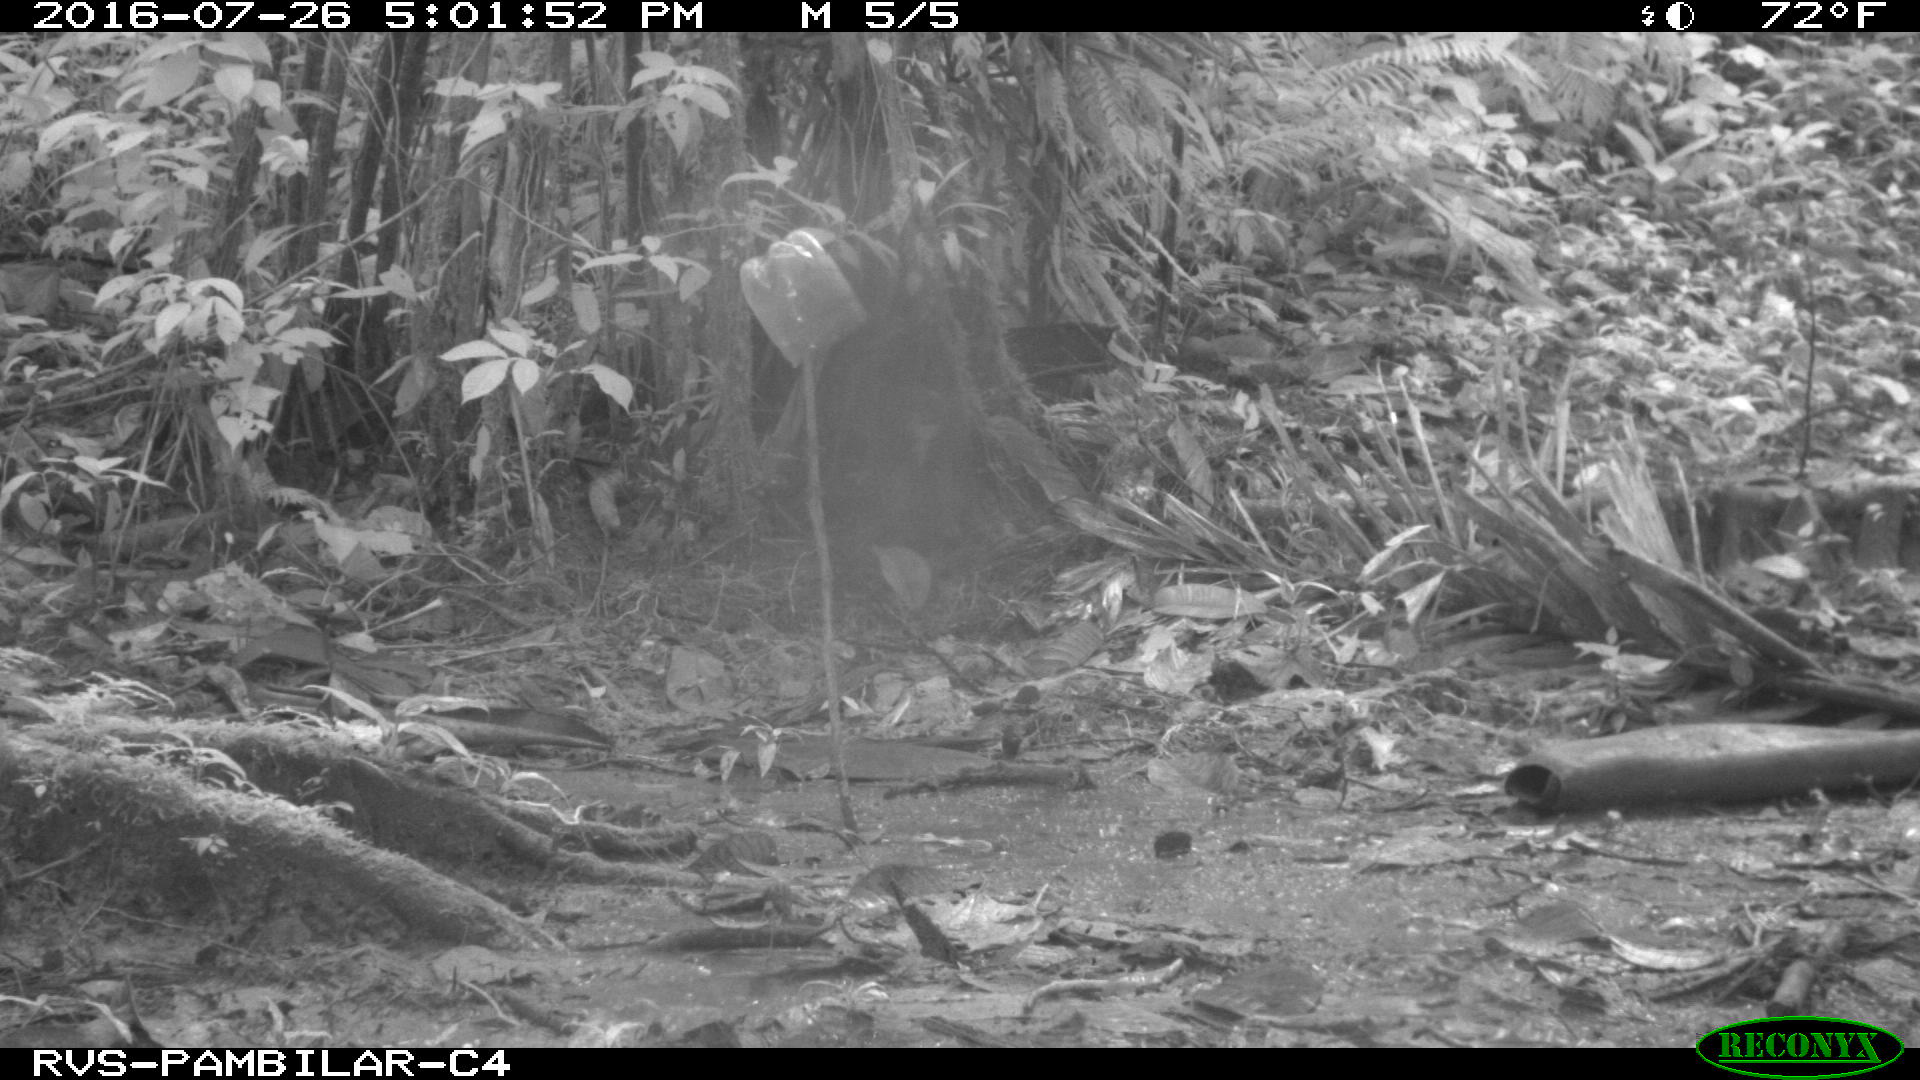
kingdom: Animalia
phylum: Chordata
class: Mammalia
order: Rodentia
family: Dasyproctidae
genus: Dasyprocta
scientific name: Dasyprocta punctata
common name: Central american agouti
